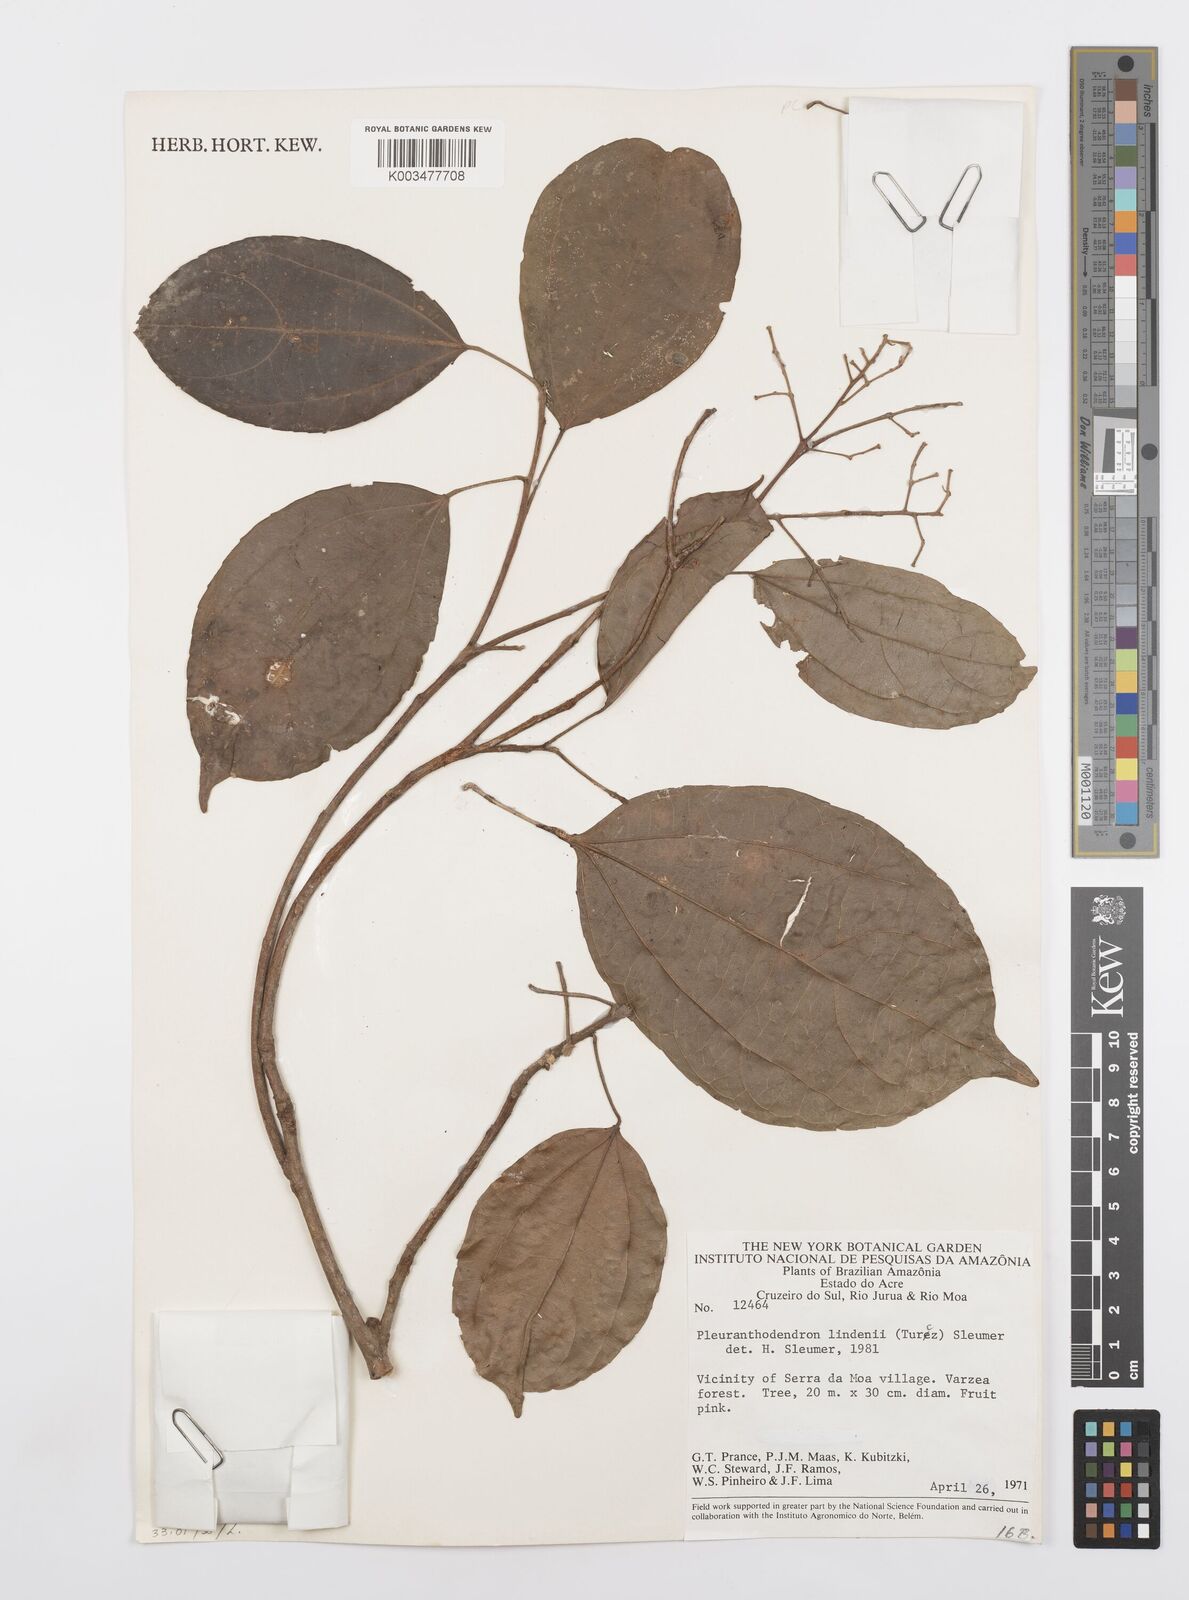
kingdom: Plantae
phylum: Tracheophyta
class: Magnoliopsida
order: Malpighiales
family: Salicaceae
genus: Pleuranthodendron
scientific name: Pleuranthodendron lindenii
